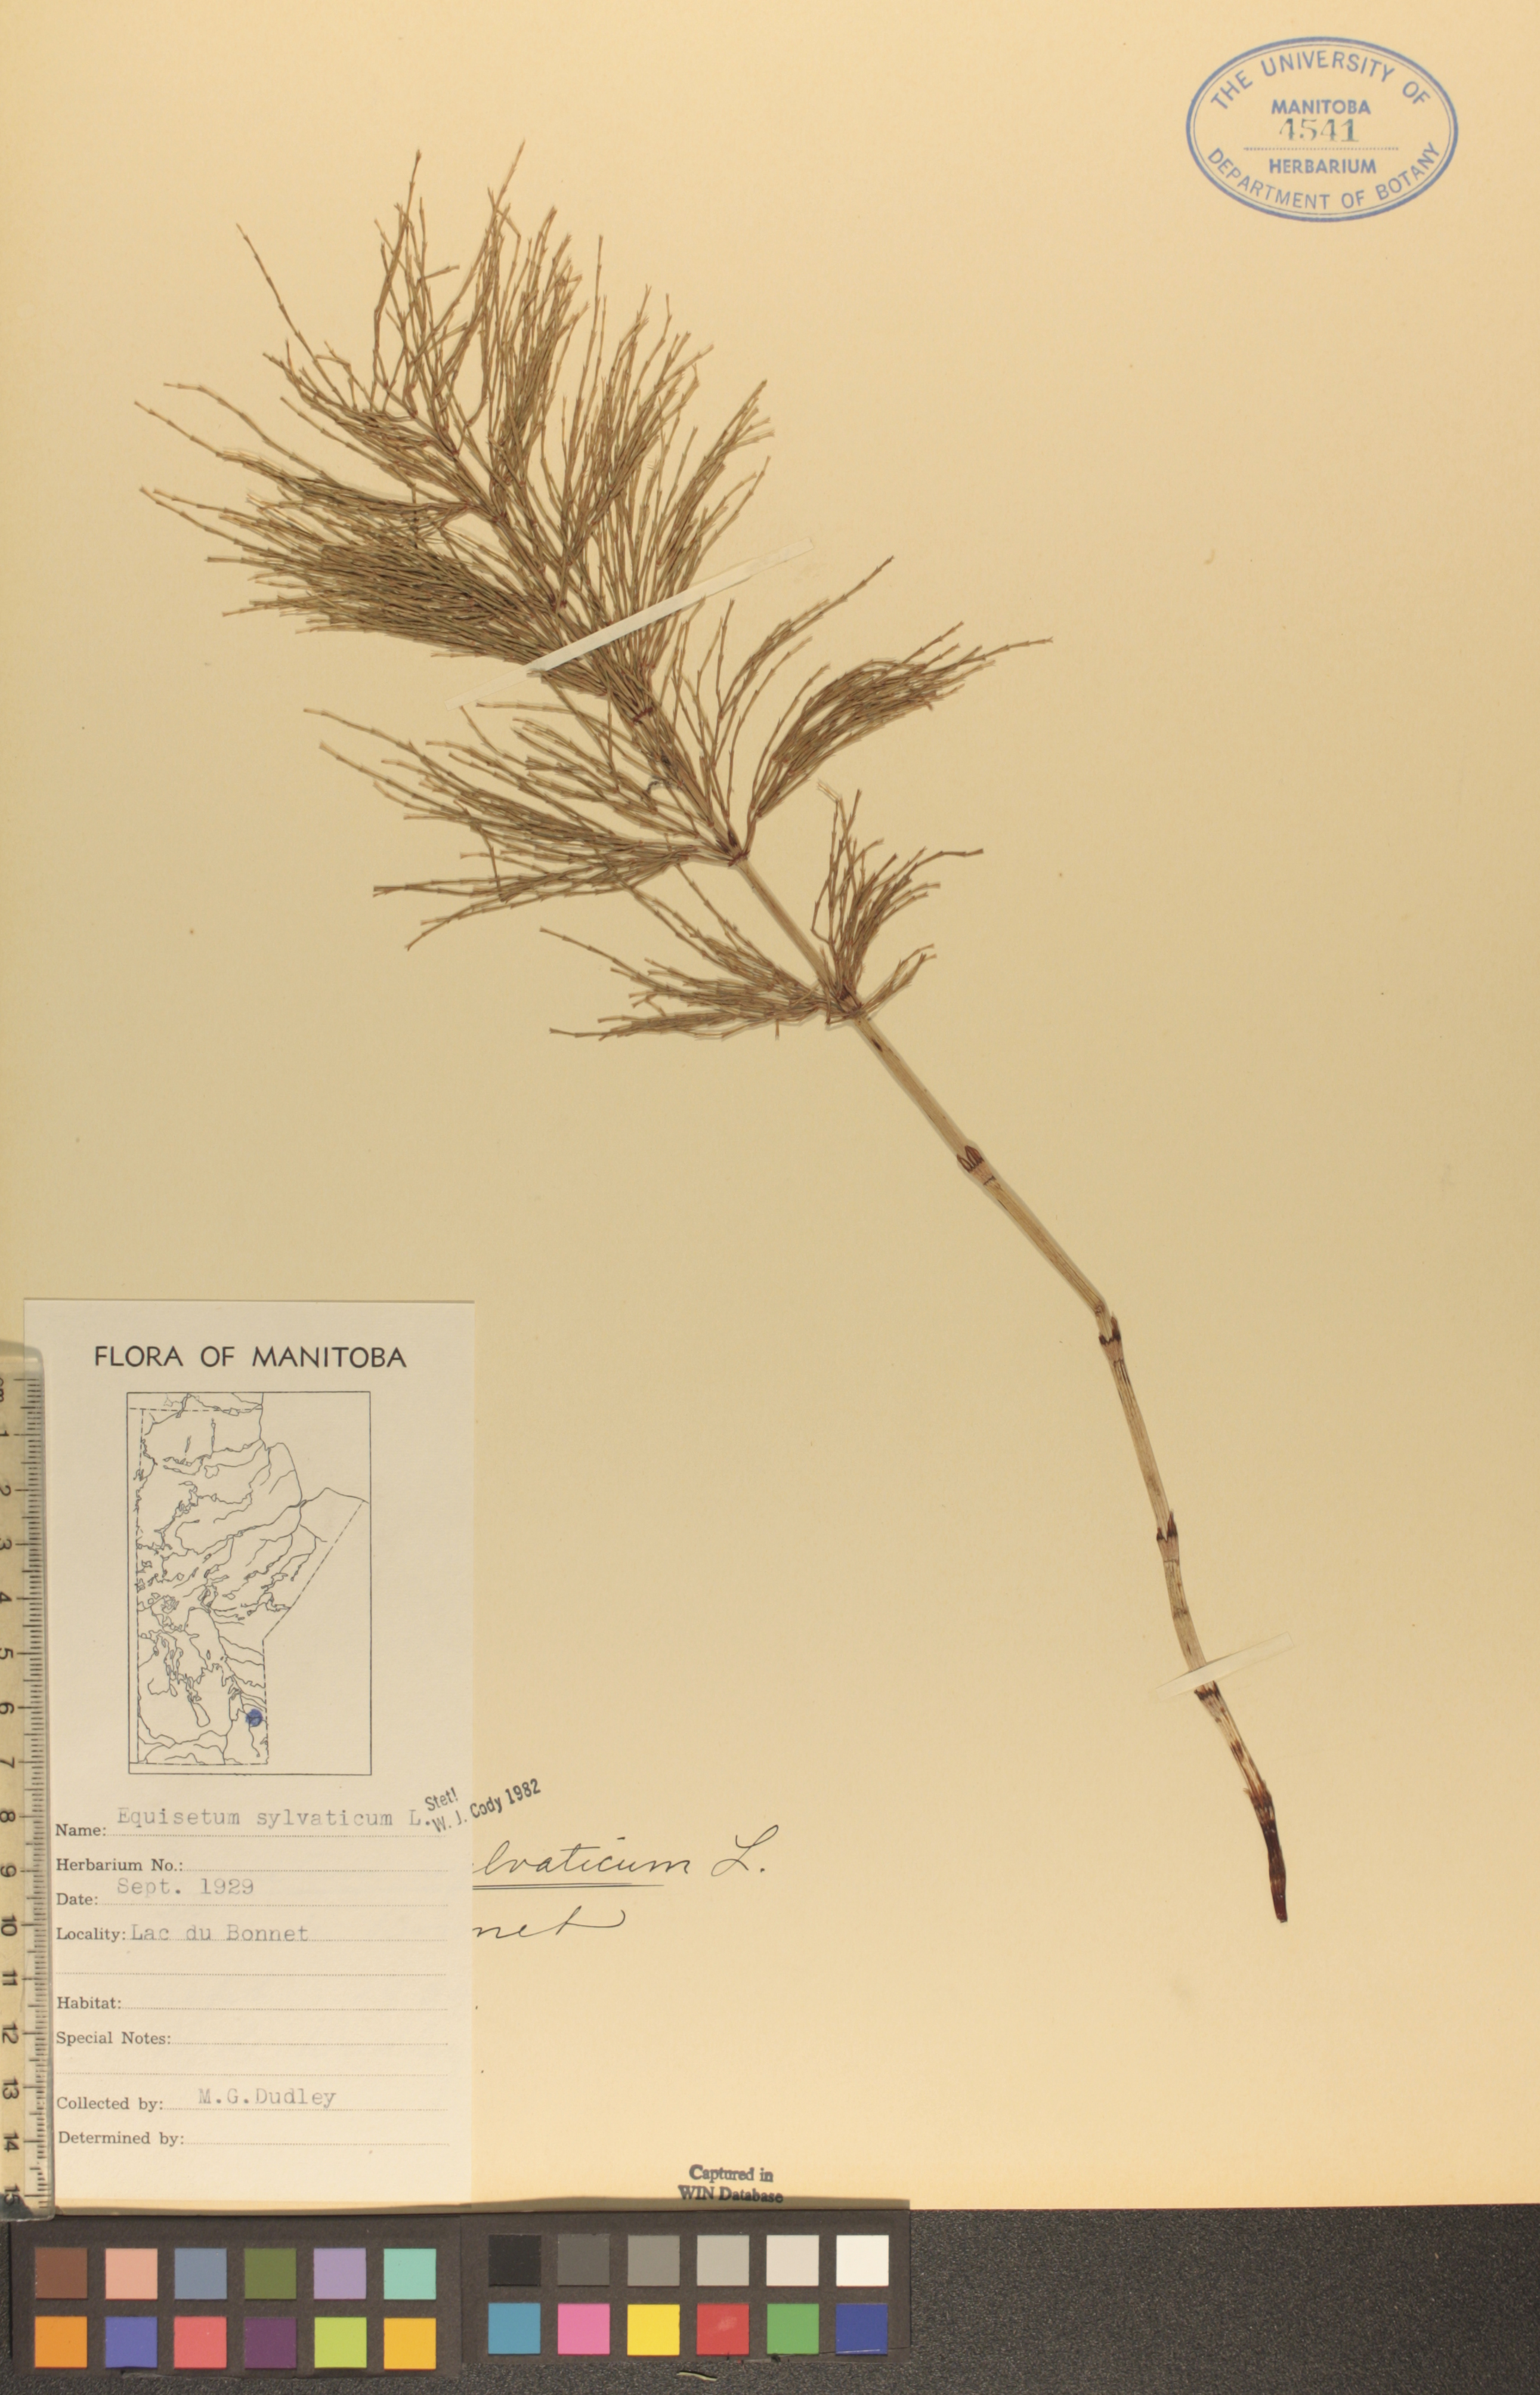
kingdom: Plantae
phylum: Tracheophyta
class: Polypodiopsida
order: Equisetales
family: Equisetaceae
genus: Equisetum
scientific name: Equisetum sylvaticum
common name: Wood horsetail
